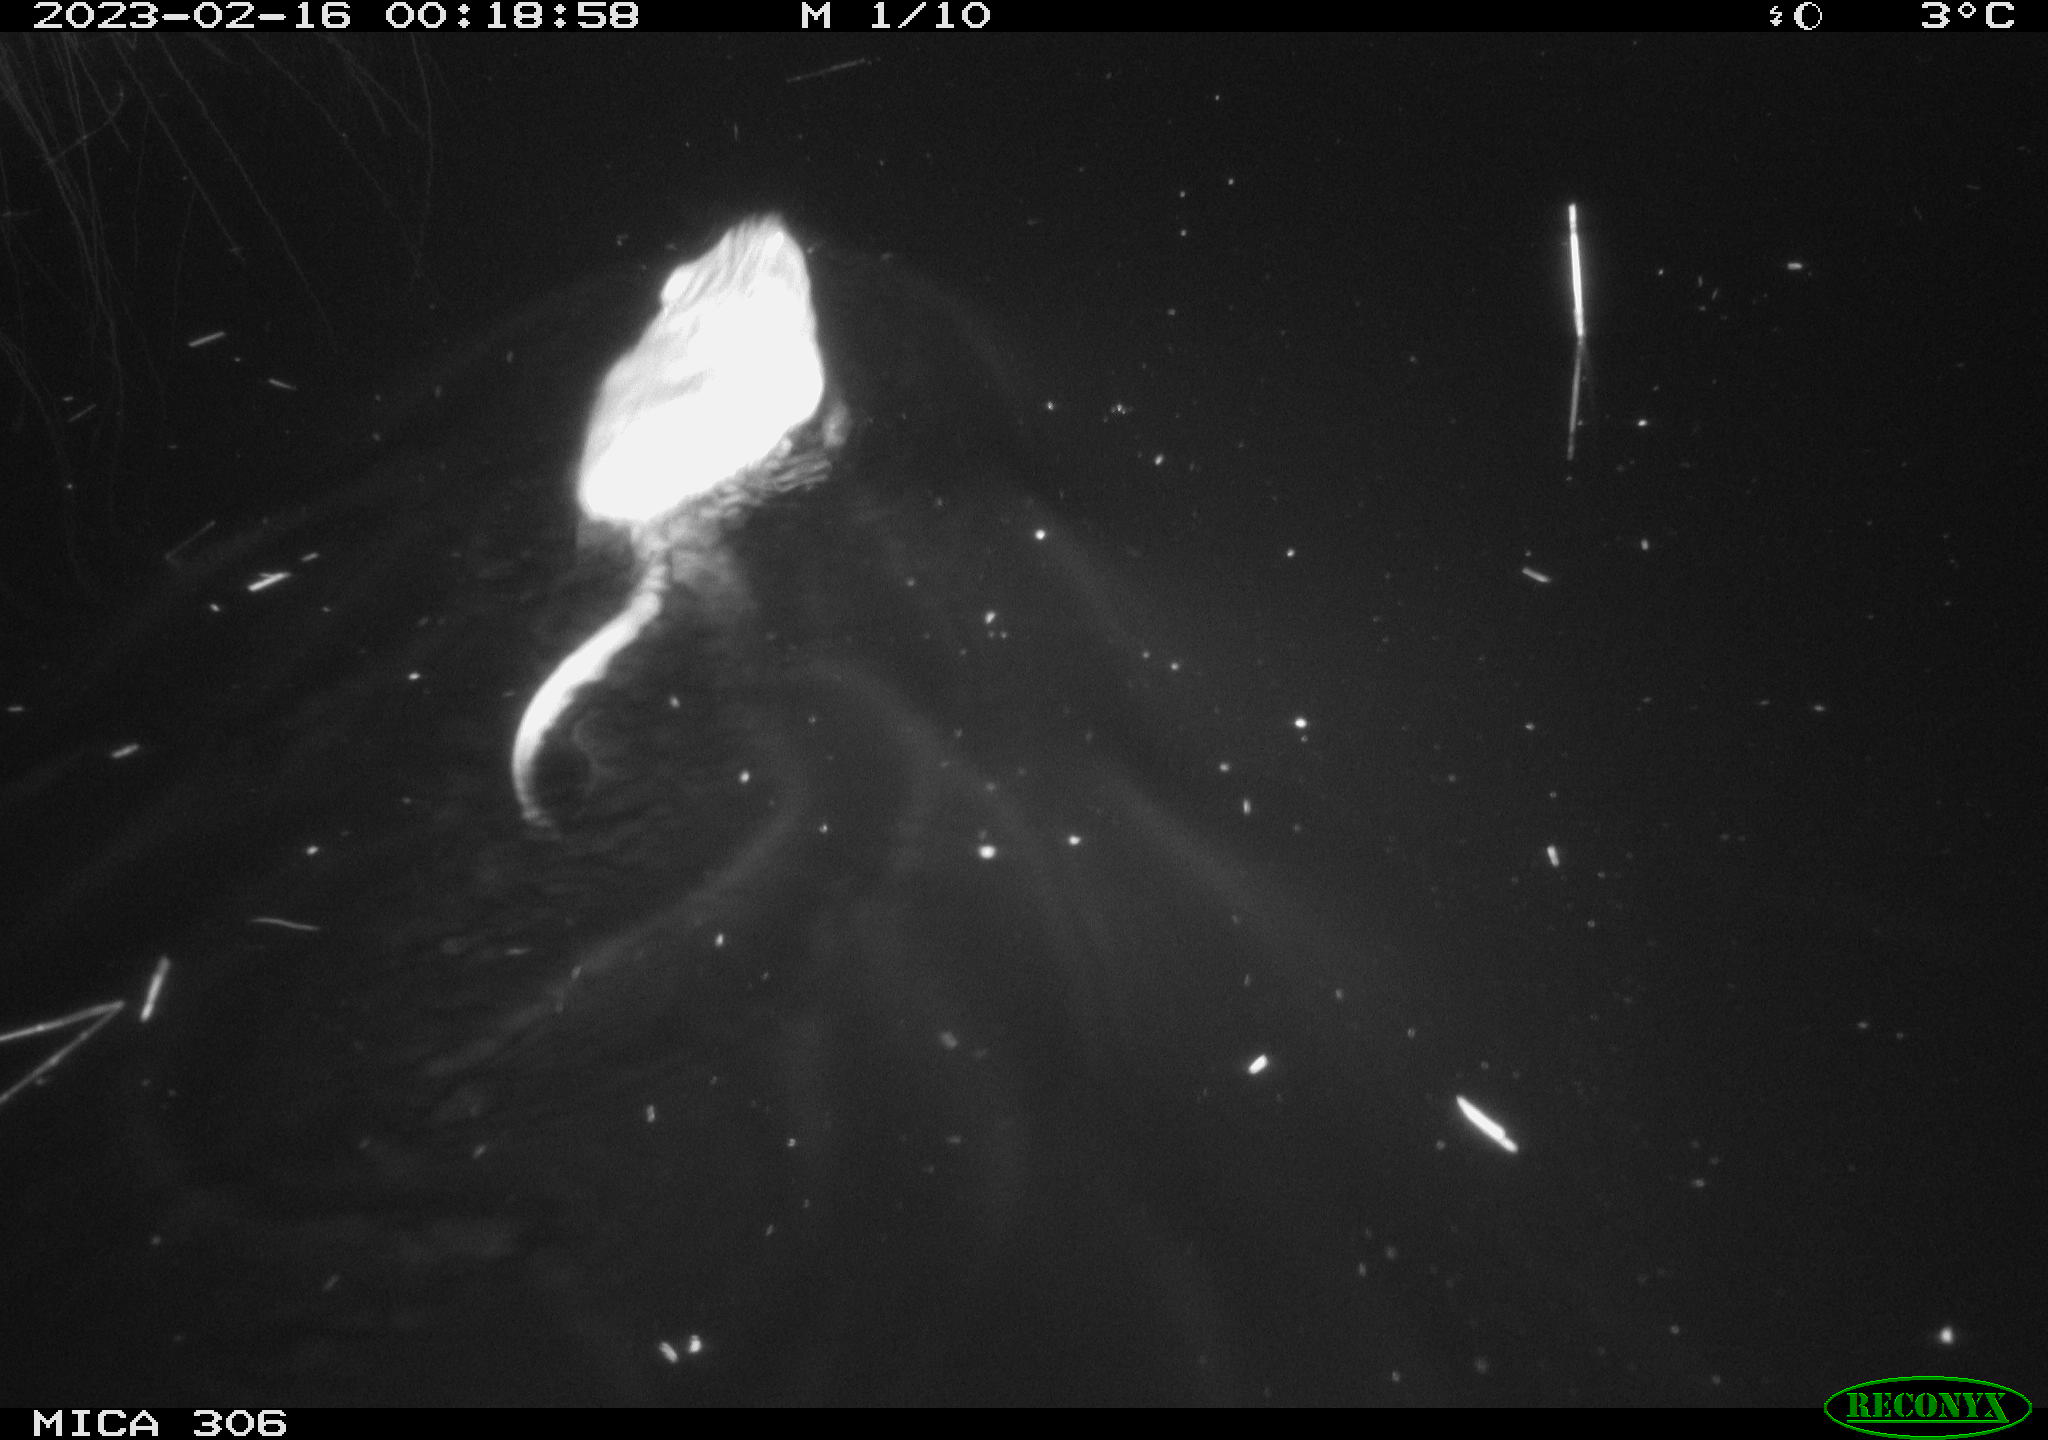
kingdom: Animalia
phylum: Chordata
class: Mammalia
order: Rodentia
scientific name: Rodentia
